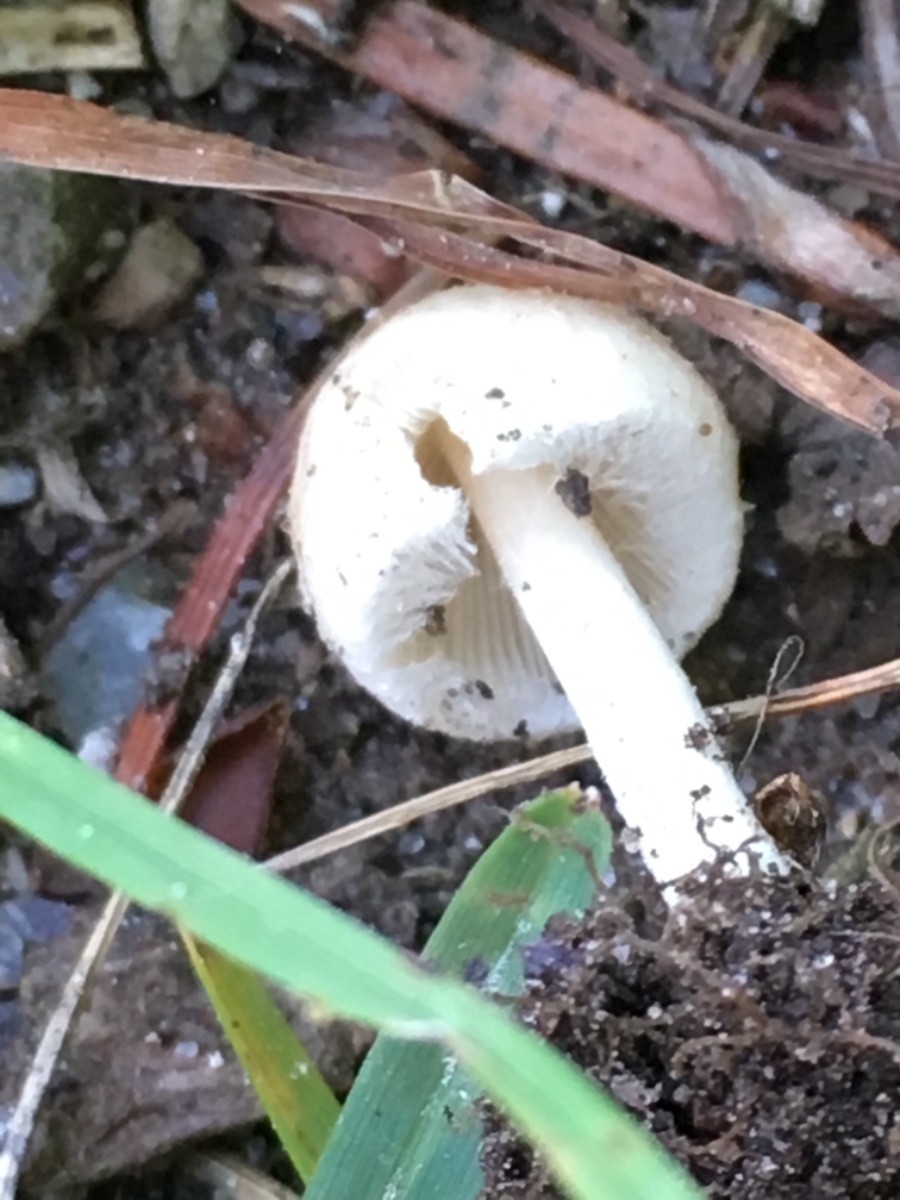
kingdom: Fungi
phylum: Basidiomycota
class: Agaricomycetes
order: Agaricales
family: Psathyrellaceae
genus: Candolleomyces
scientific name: Candolleomyces candolleanus
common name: Candolles mørkhat
